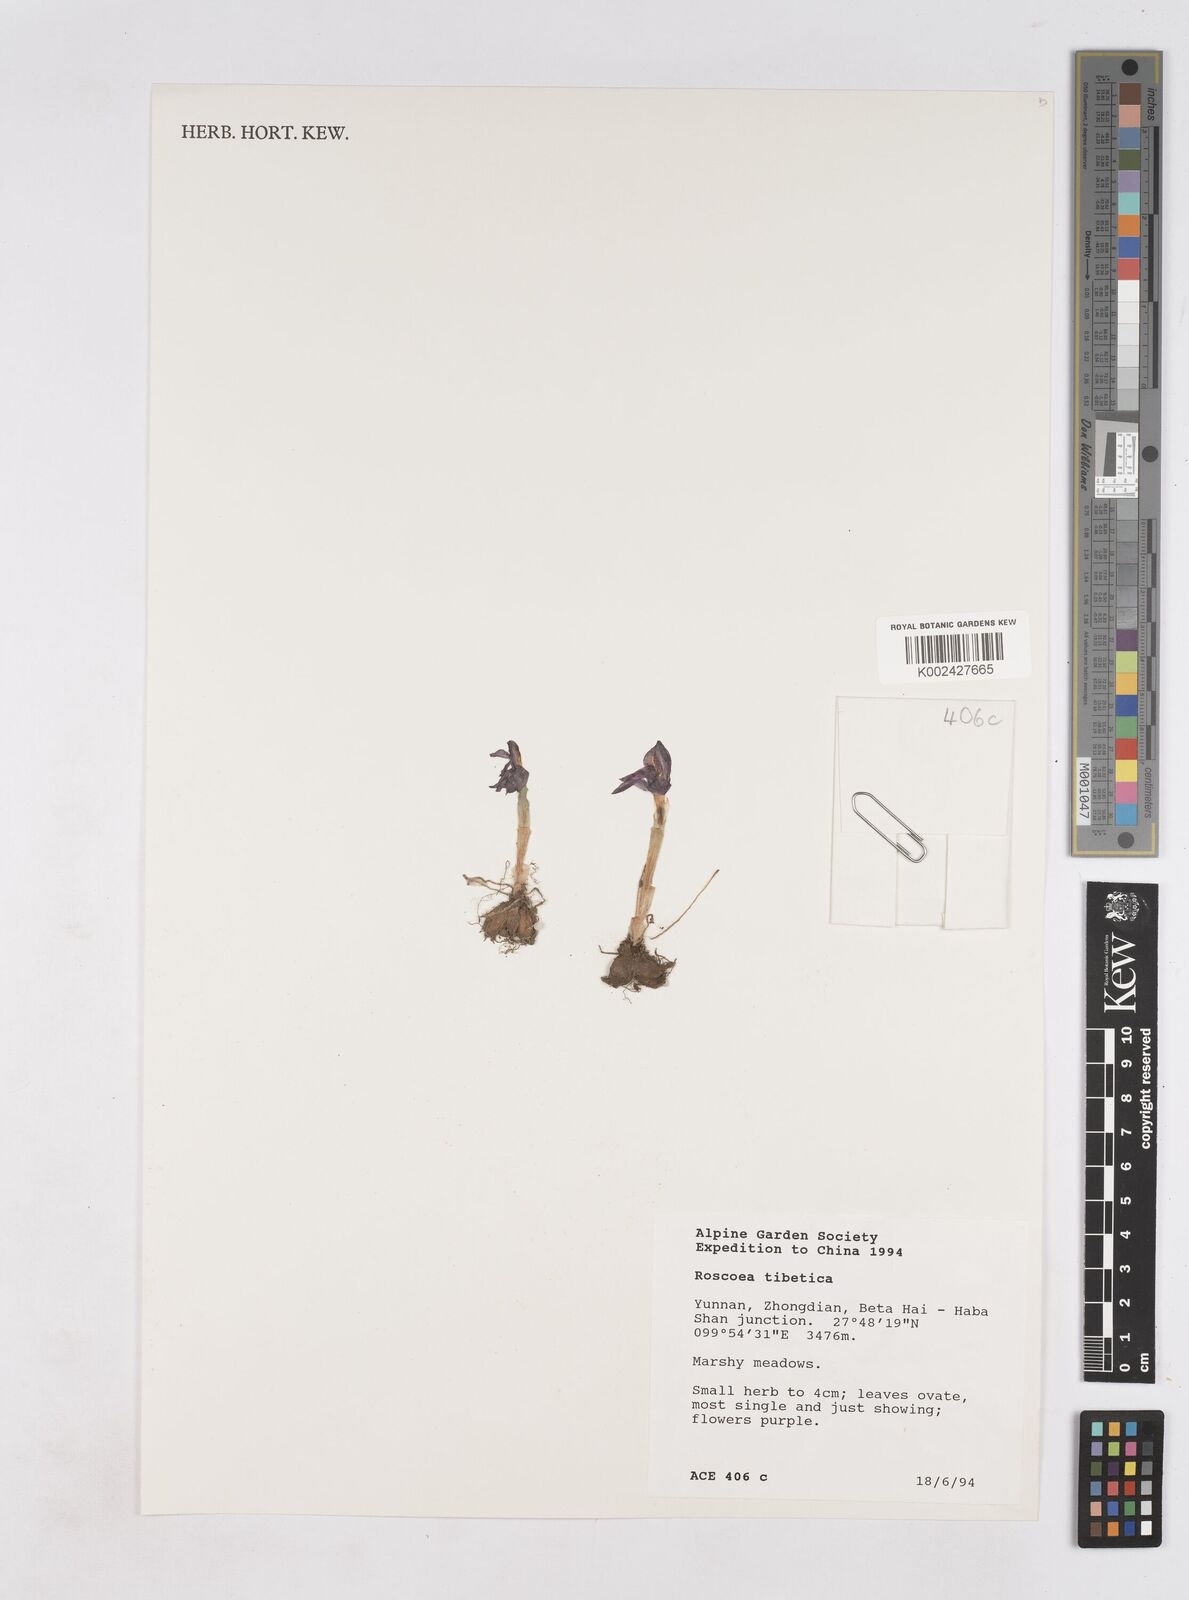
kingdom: Plantae
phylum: Tracheophyta
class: Liliopsida
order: Zingiberales
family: Zingiberaceae
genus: Roscoea
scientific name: Roscoea tibetica
